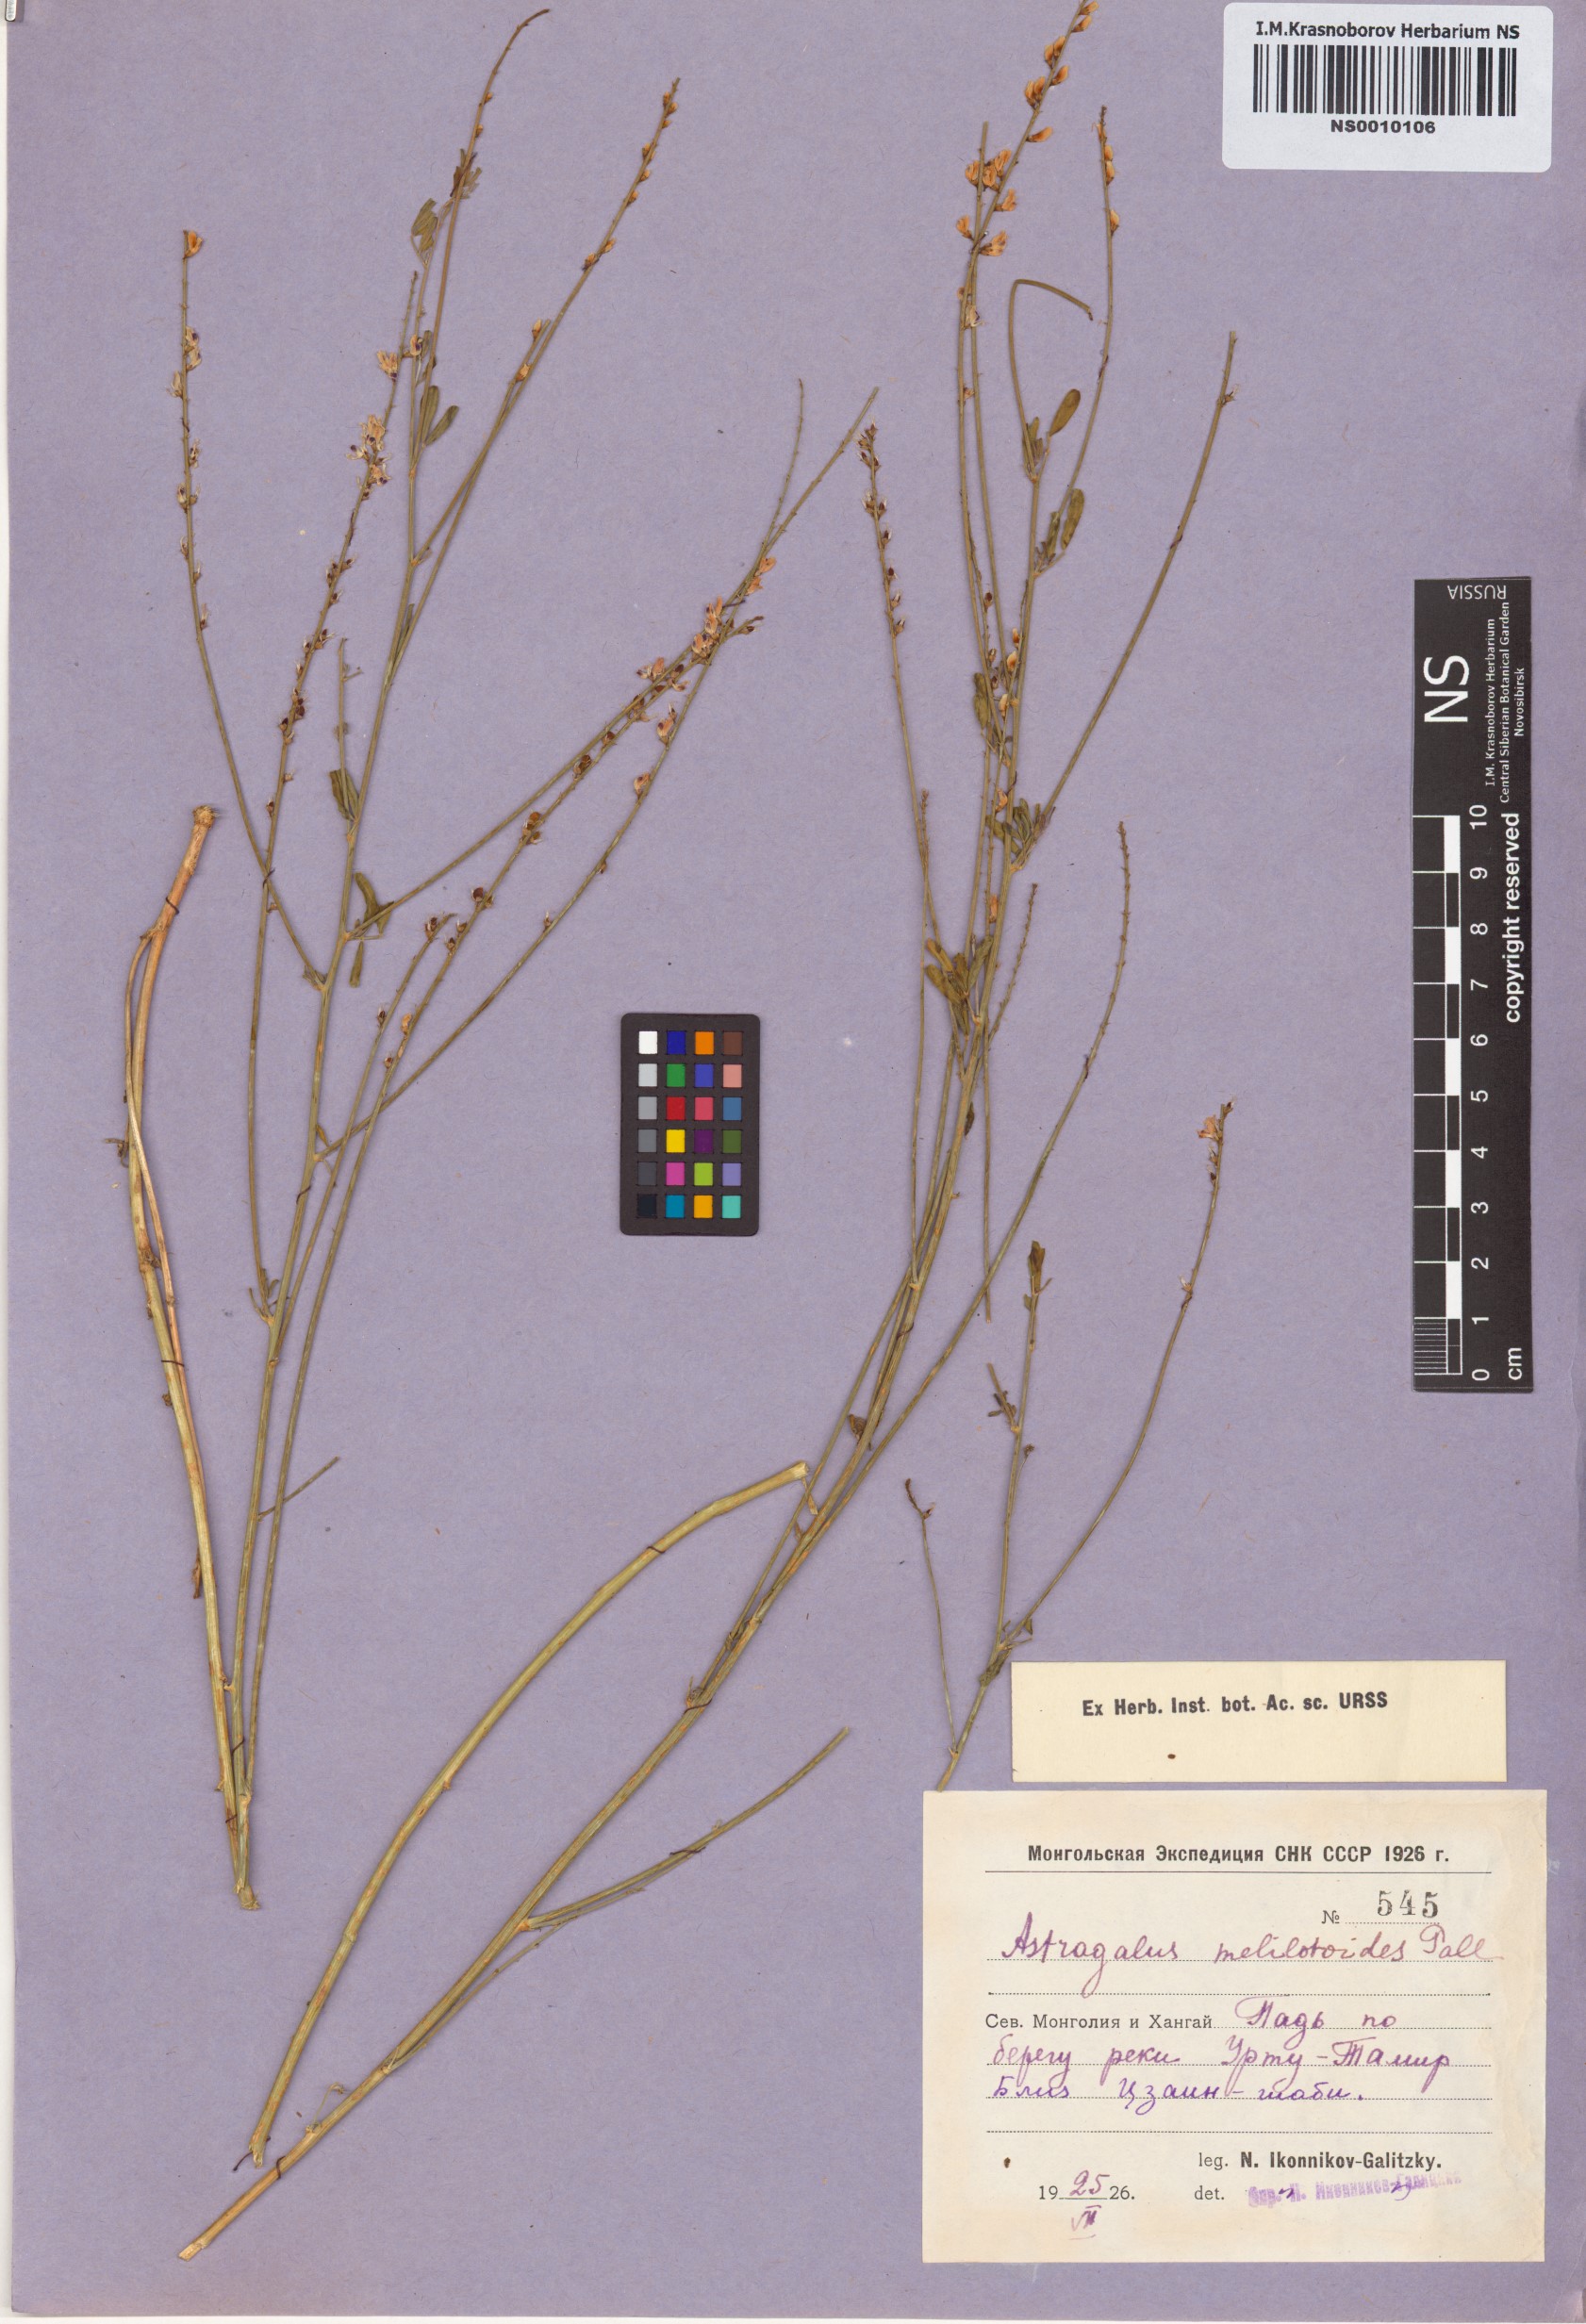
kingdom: Plantae
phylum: Tracheophyta
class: Magnoliopsida
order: Fabales
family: Fabaceae
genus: Astragalus
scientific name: Astragalus melilotoides
